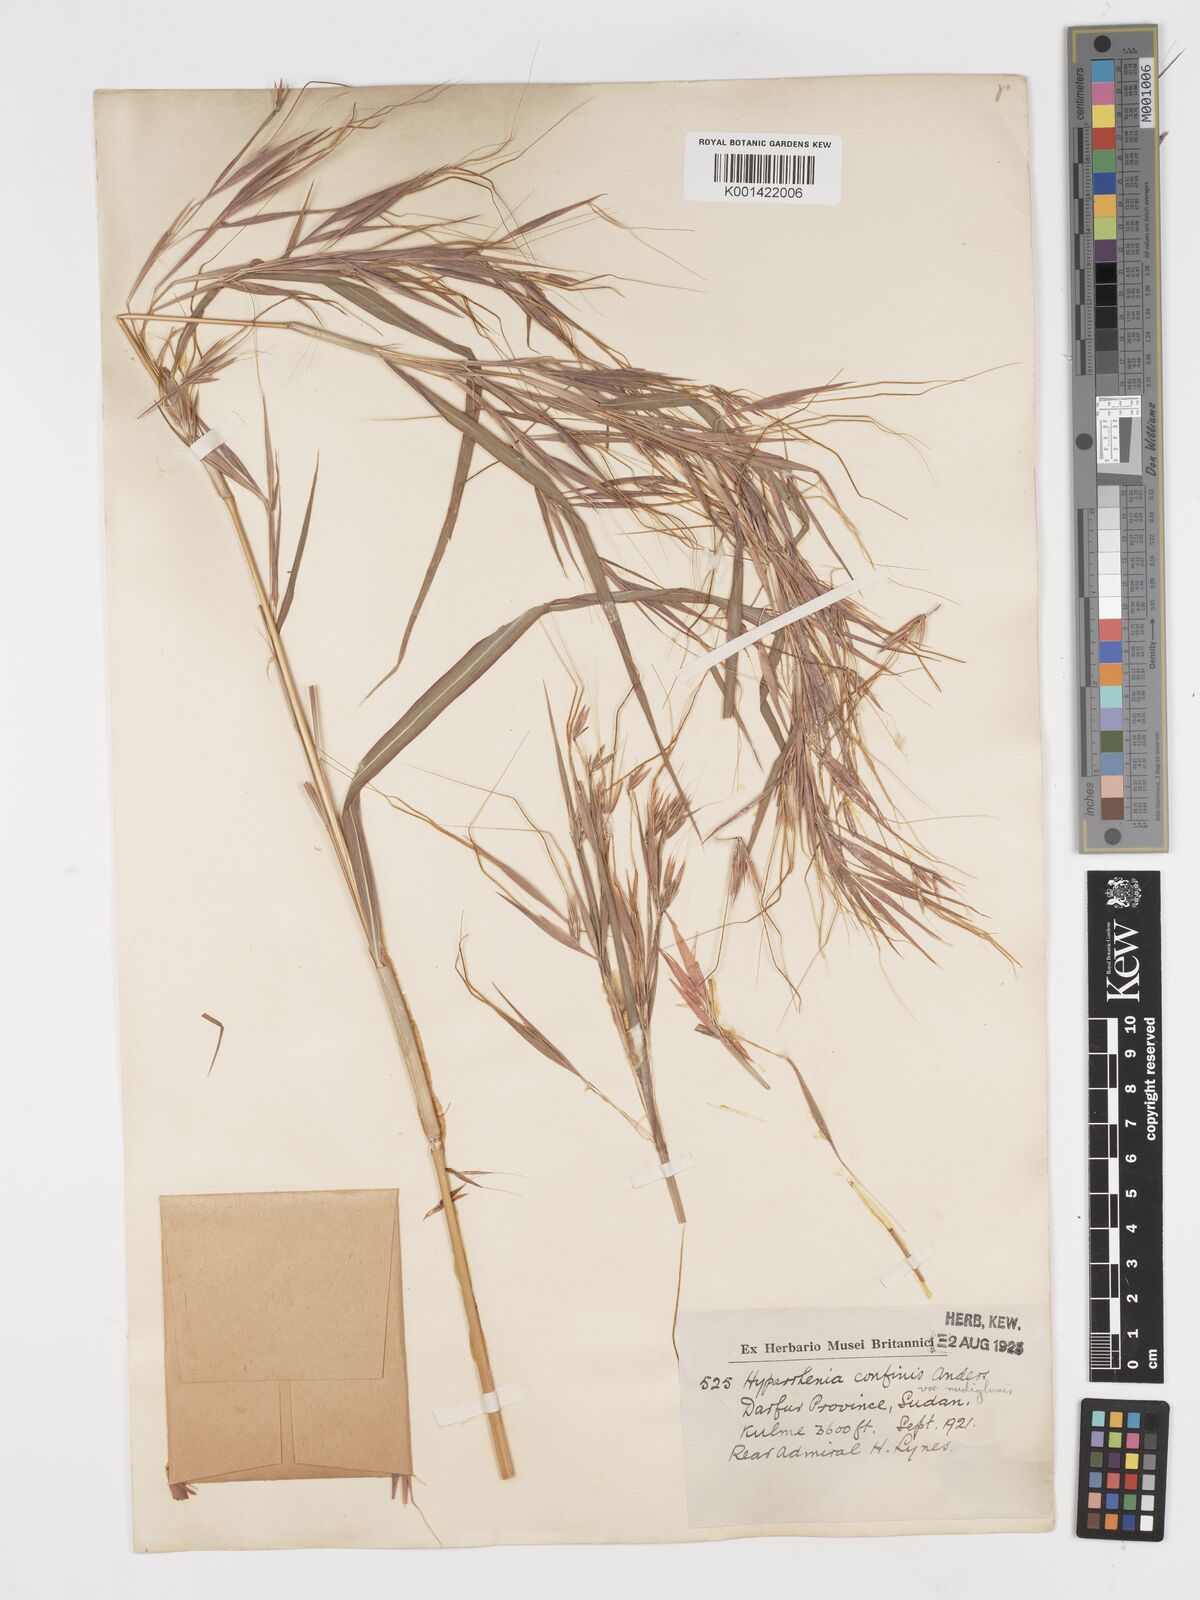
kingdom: Plantae
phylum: Tracheophyta
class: Liliopsida
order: Poales
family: Poaceae
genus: Hyparrhenia
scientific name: Hyparrhenia confinis
